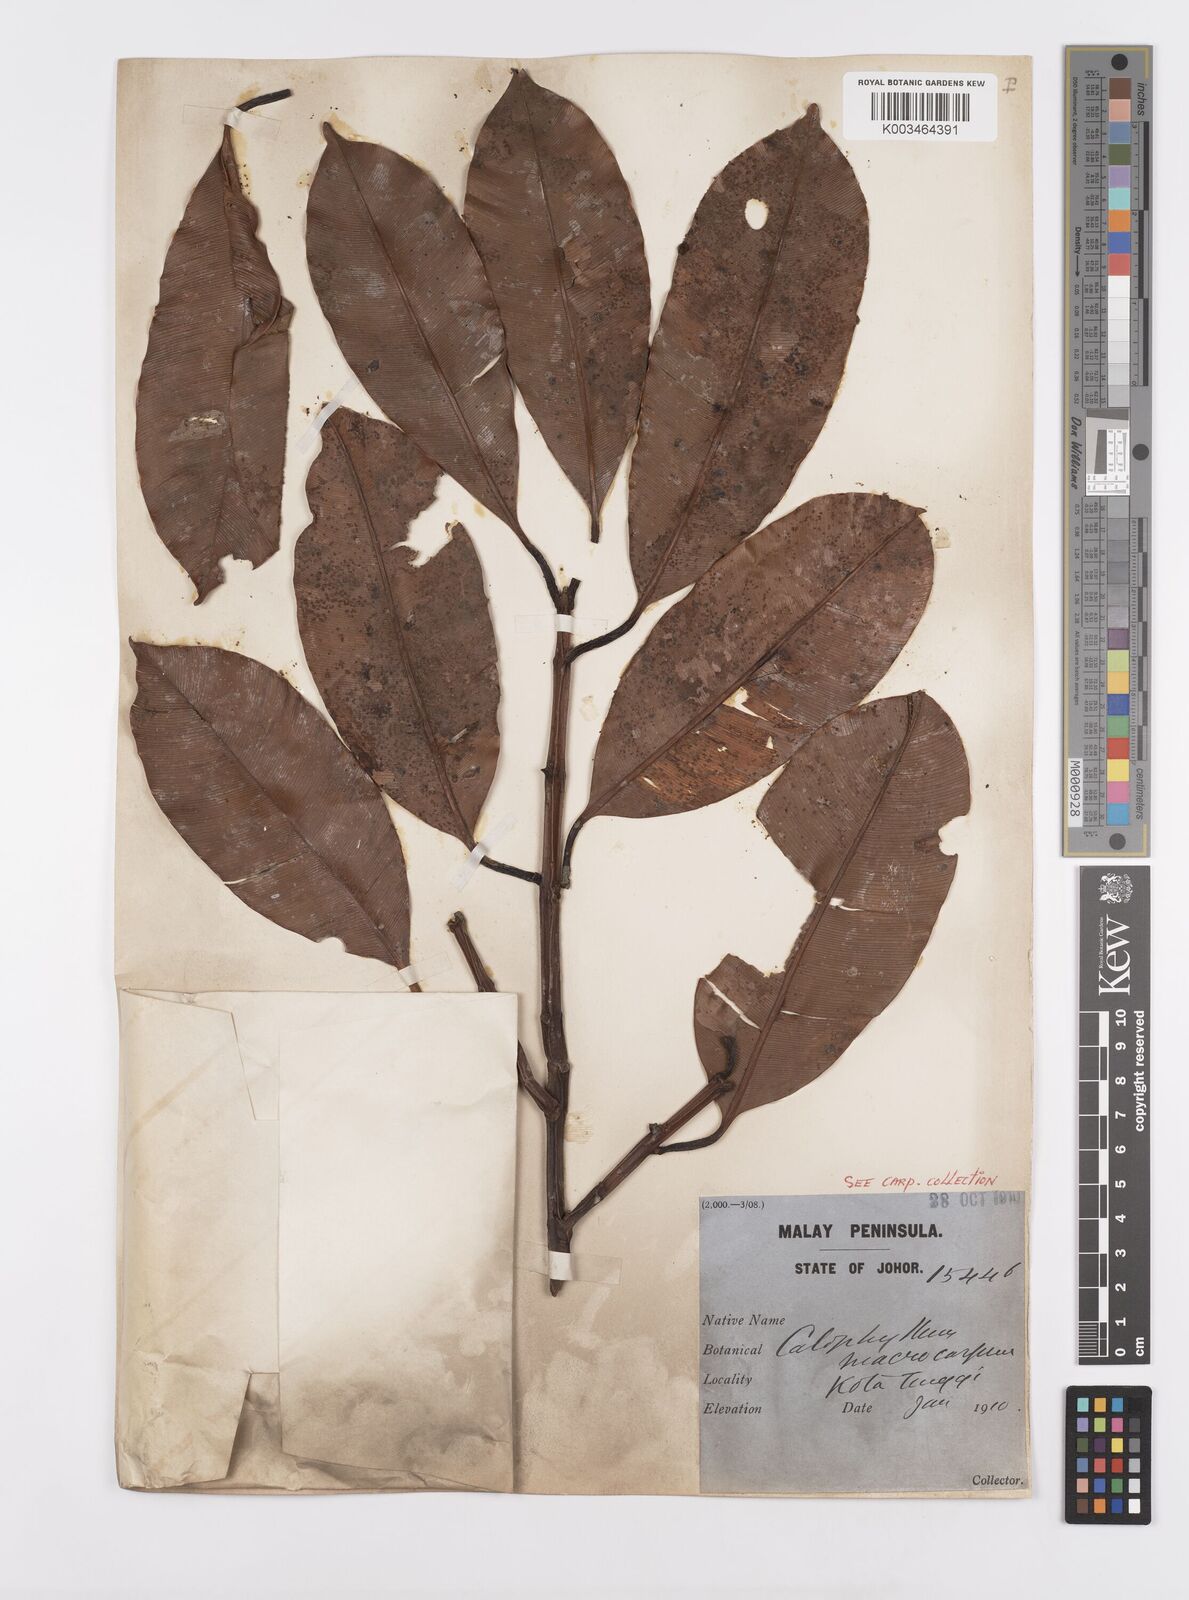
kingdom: Plantae
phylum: Tracheophyta
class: Magnoliopsida
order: Malpighiales
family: Calophyllaceae
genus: Calophyllum
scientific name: Calophyllum macrocarpum
